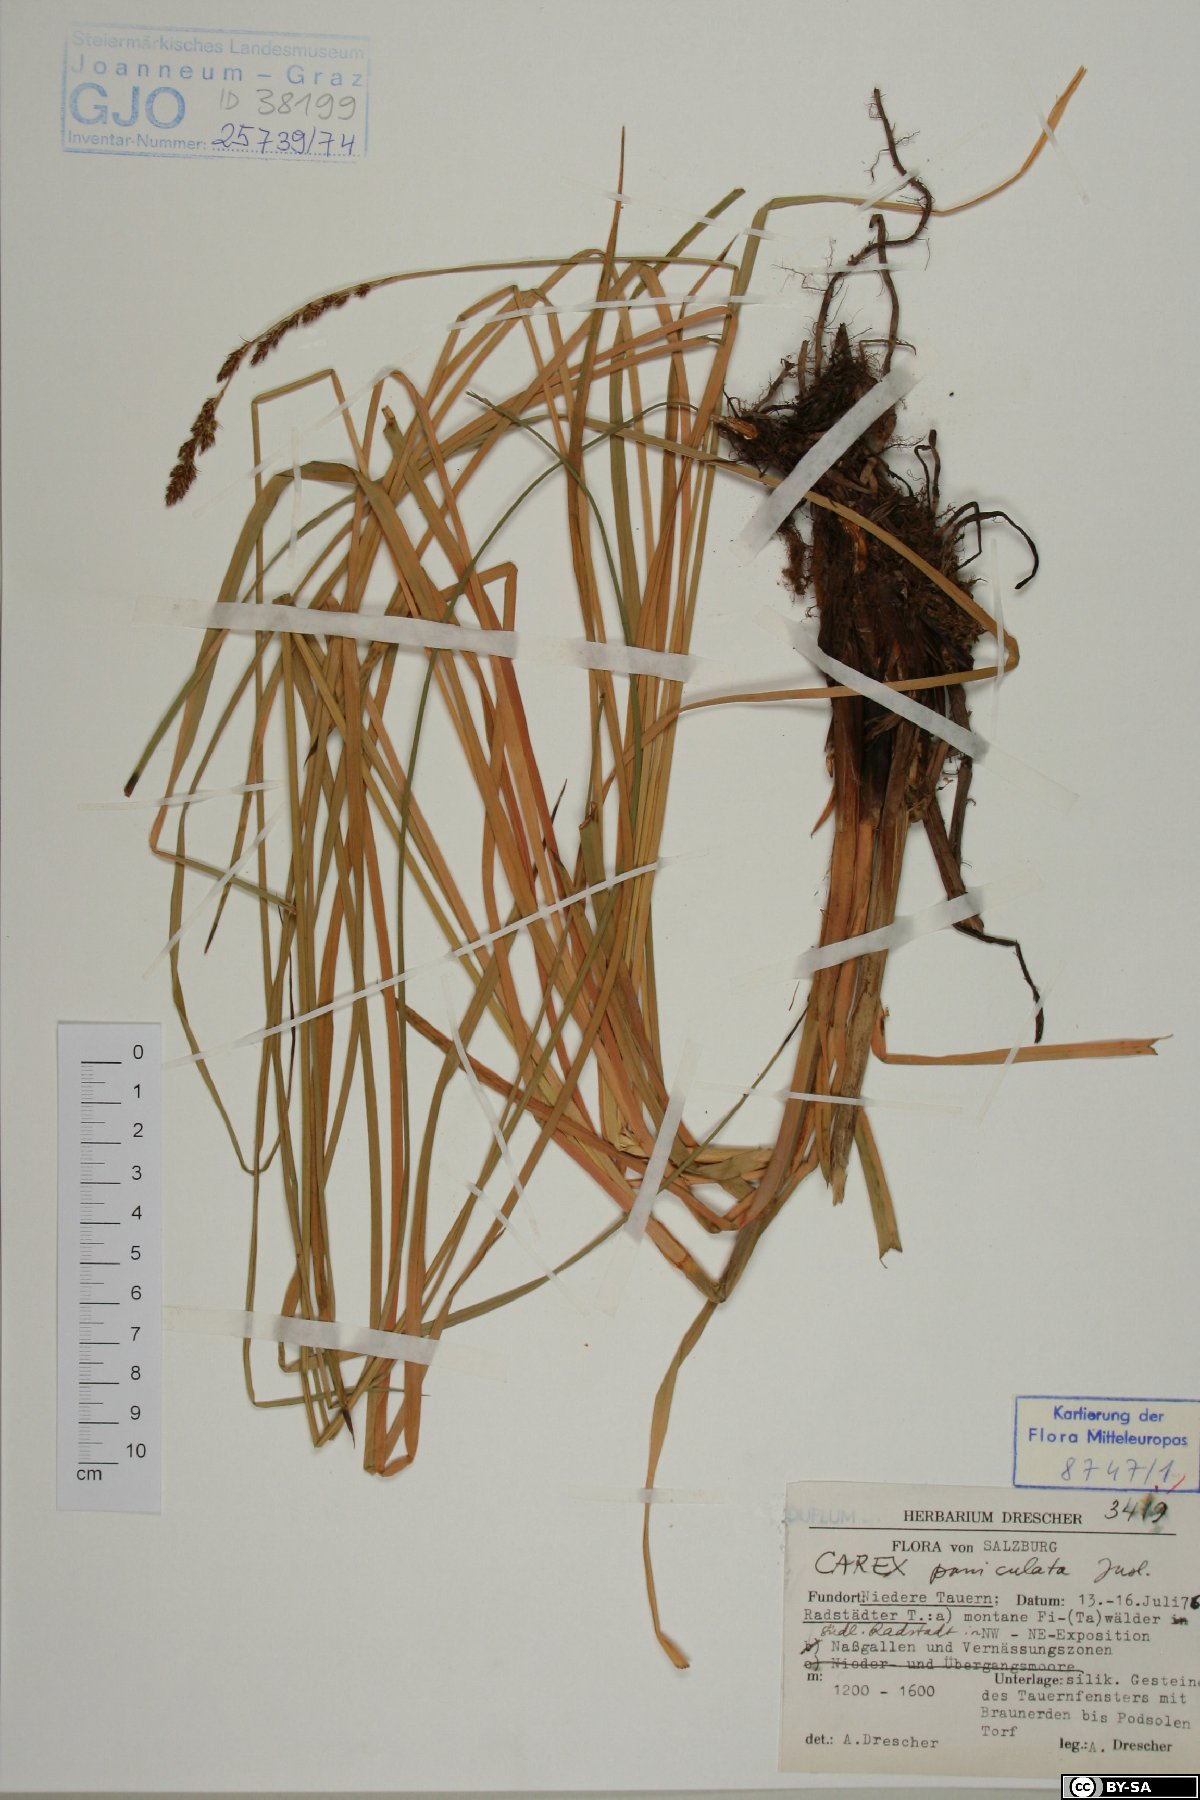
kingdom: Plantae
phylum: Tracheophyta
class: Liliopsida
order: Poales
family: Cyperaceae
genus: Carex
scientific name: Carex paniculata
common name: Greater tussock-sedge
